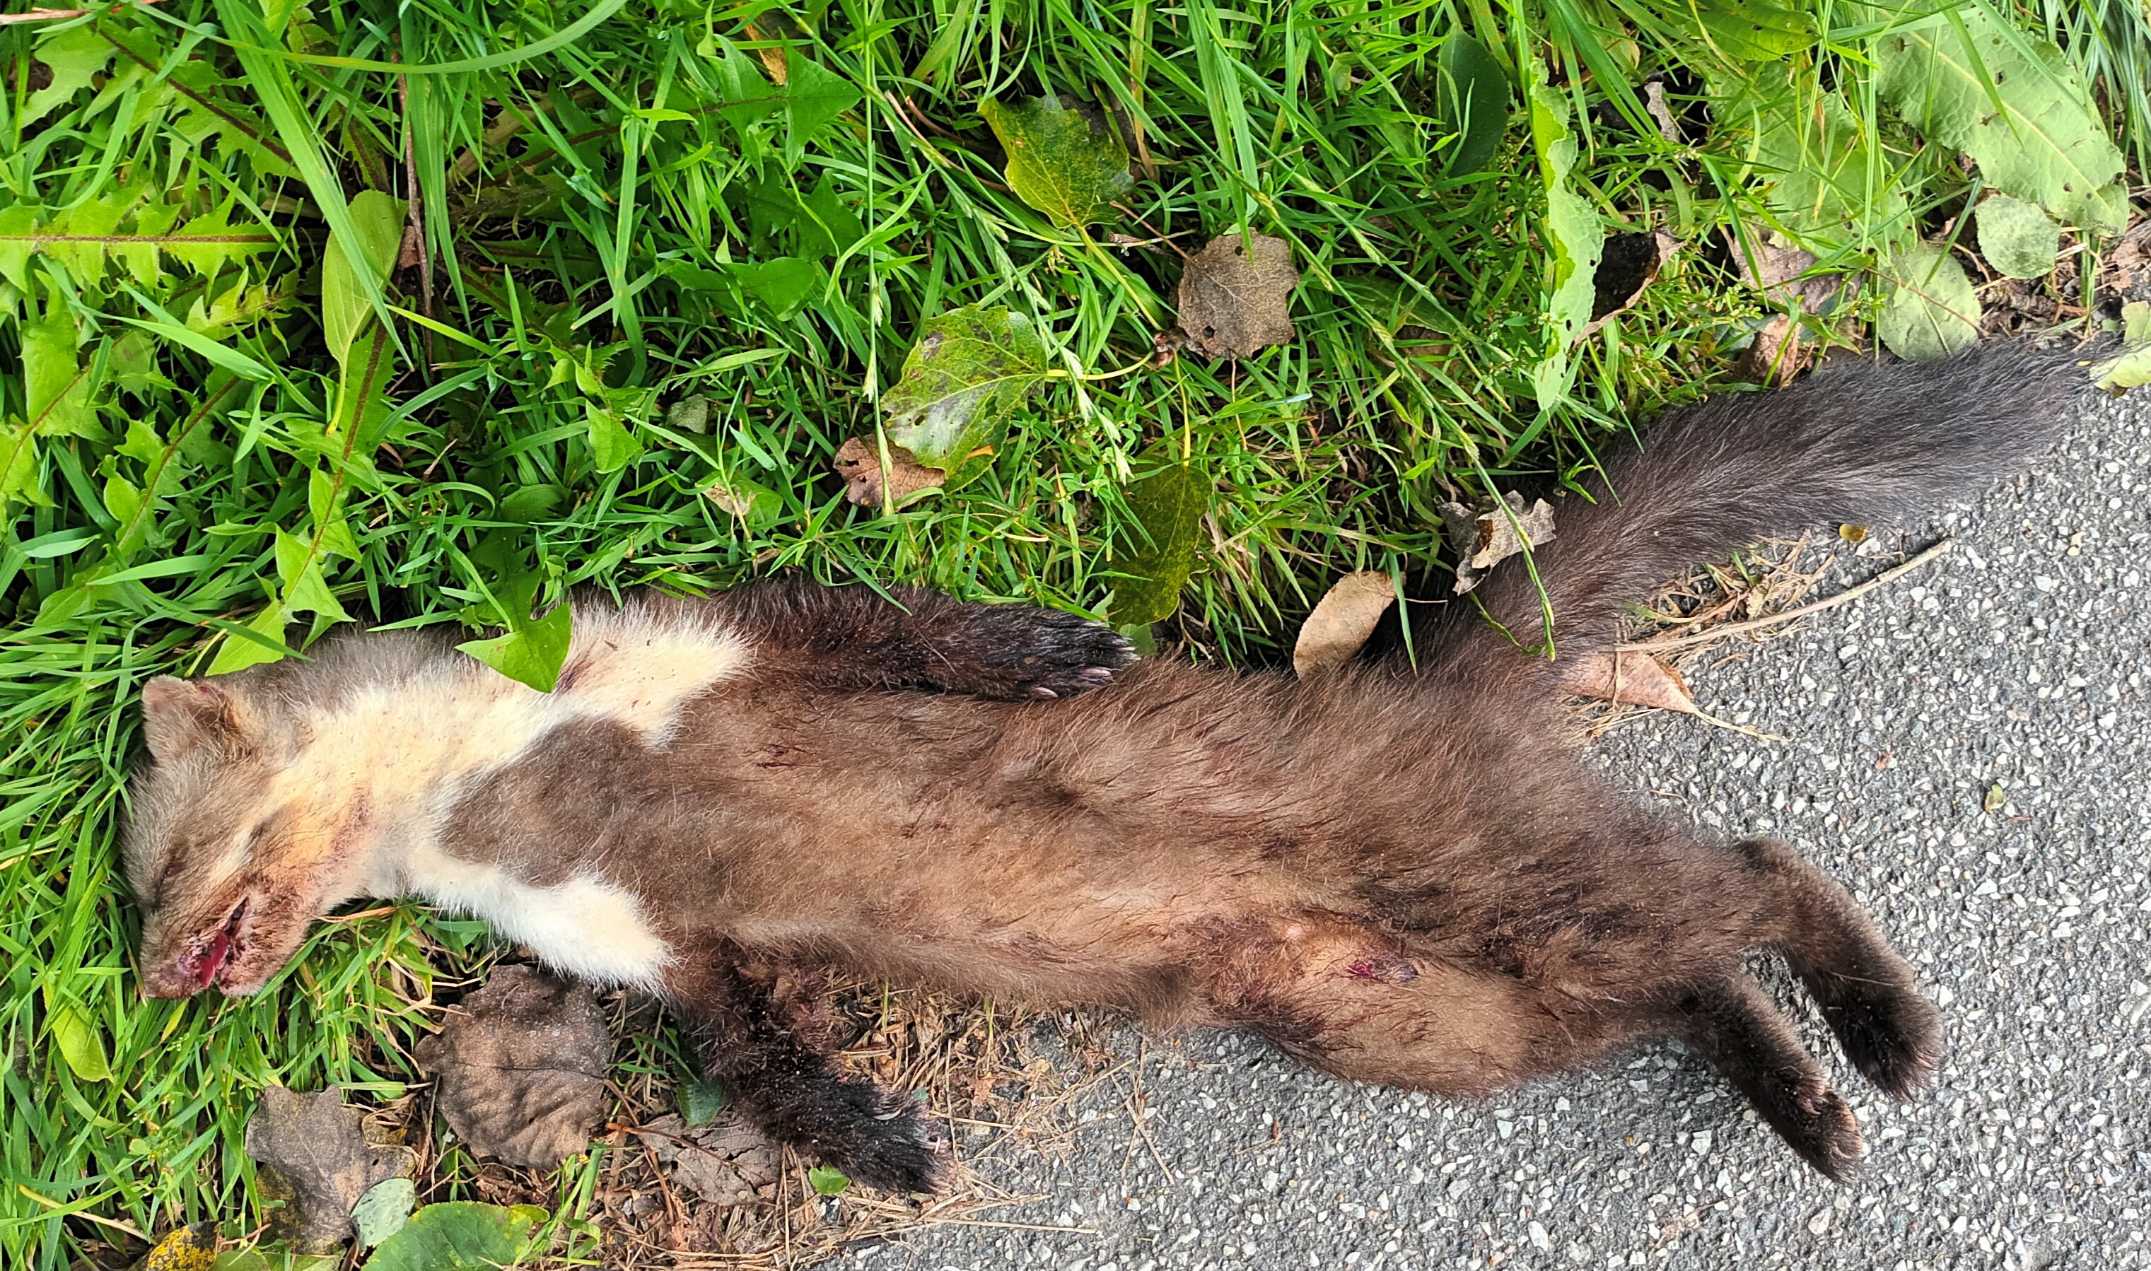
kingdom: Animalia
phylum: Chordata
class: Mammalia
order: Carnivora
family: Mustelidae
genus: Martes
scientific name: Martes foina
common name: Husmår
